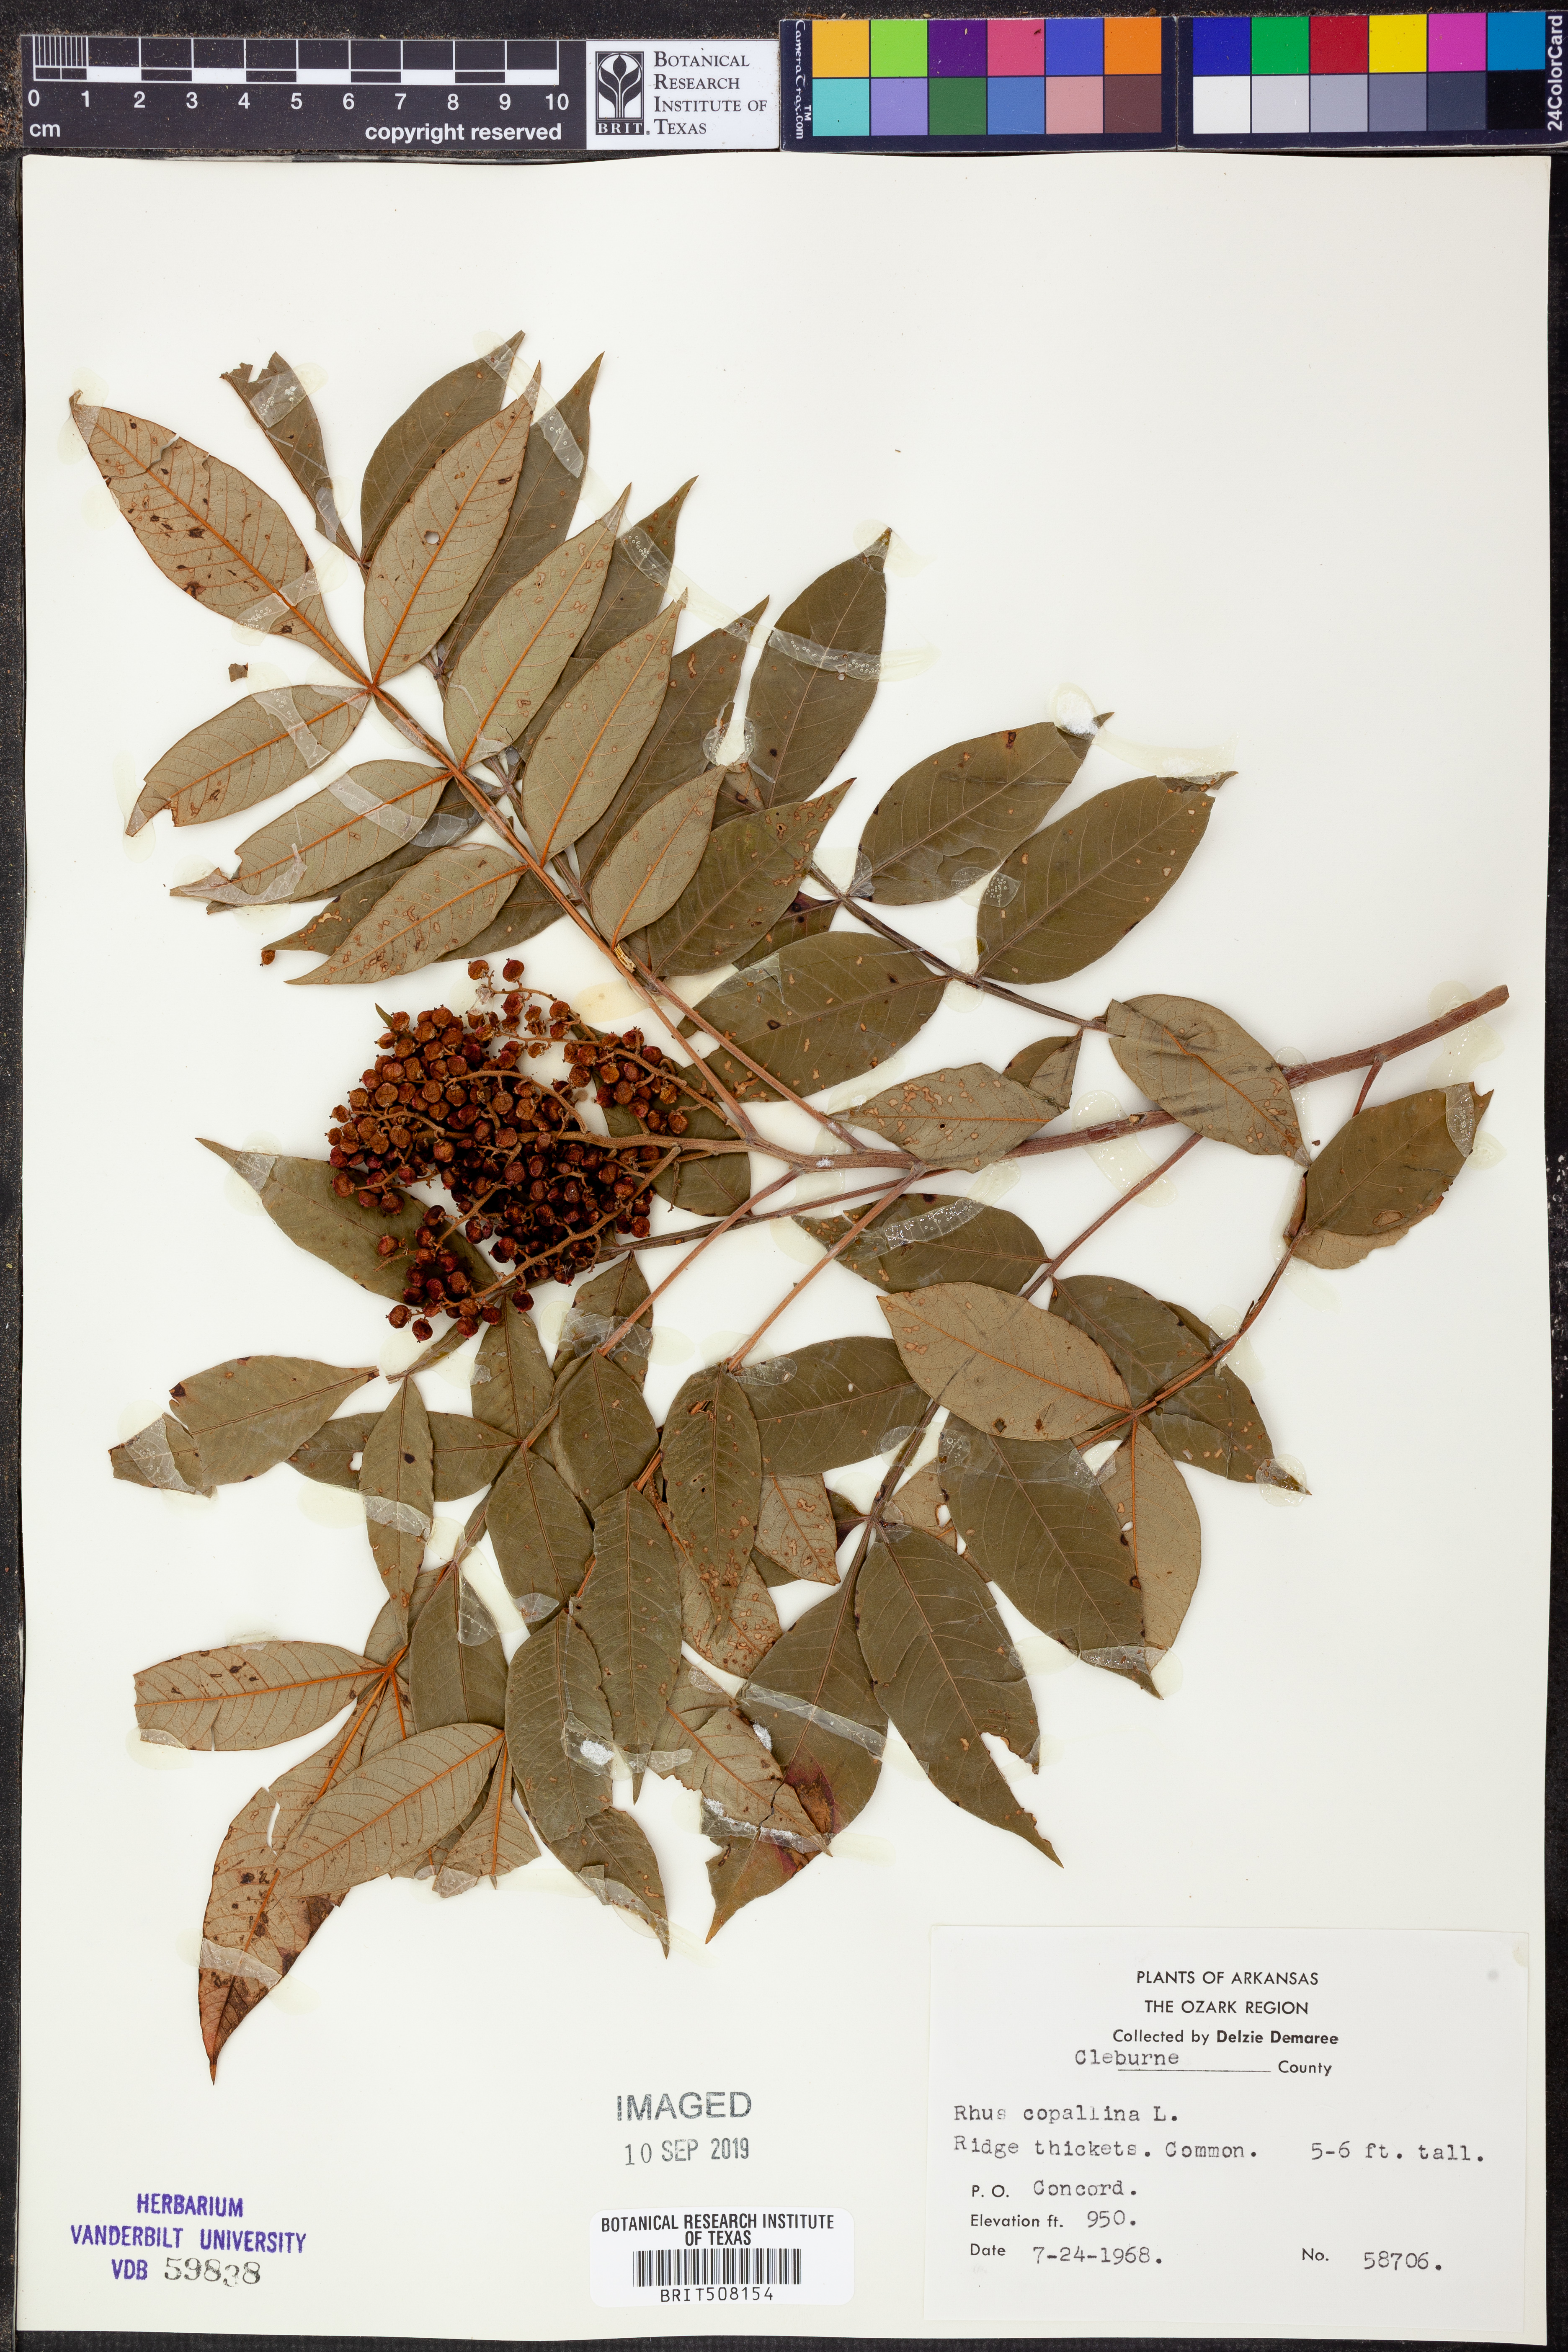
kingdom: Plantae
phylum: Tracheophyta
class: Magnoliopsida
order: Sapindales
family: Anacardiaceae
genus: Rhus
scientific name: Rhus copallina
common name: Shining sumac
